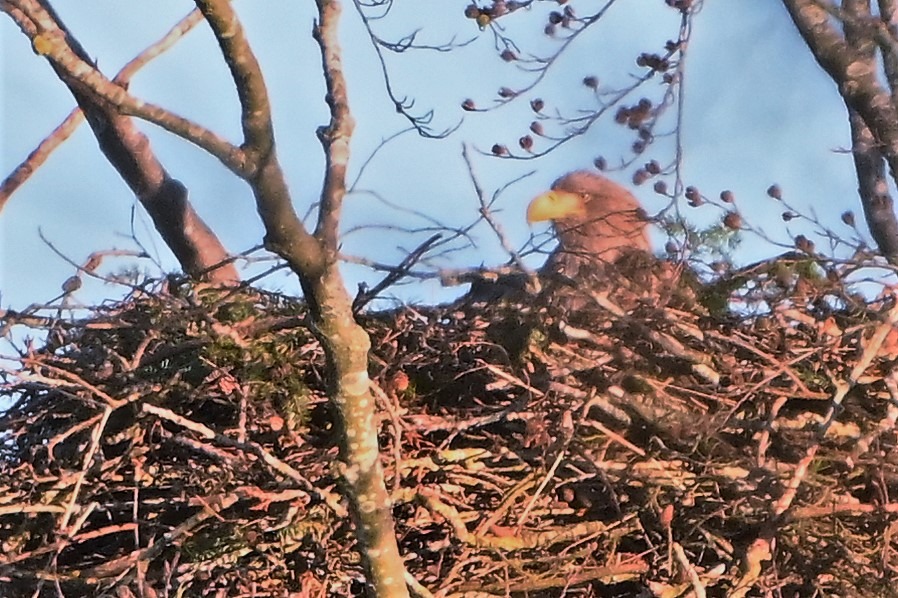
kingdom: Animalia
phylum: Chordata
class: Aves
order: Accipitriformes
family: Accipitridae
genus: Haliaeetus
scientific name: Haliaeetus albicilla
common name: Havørn
